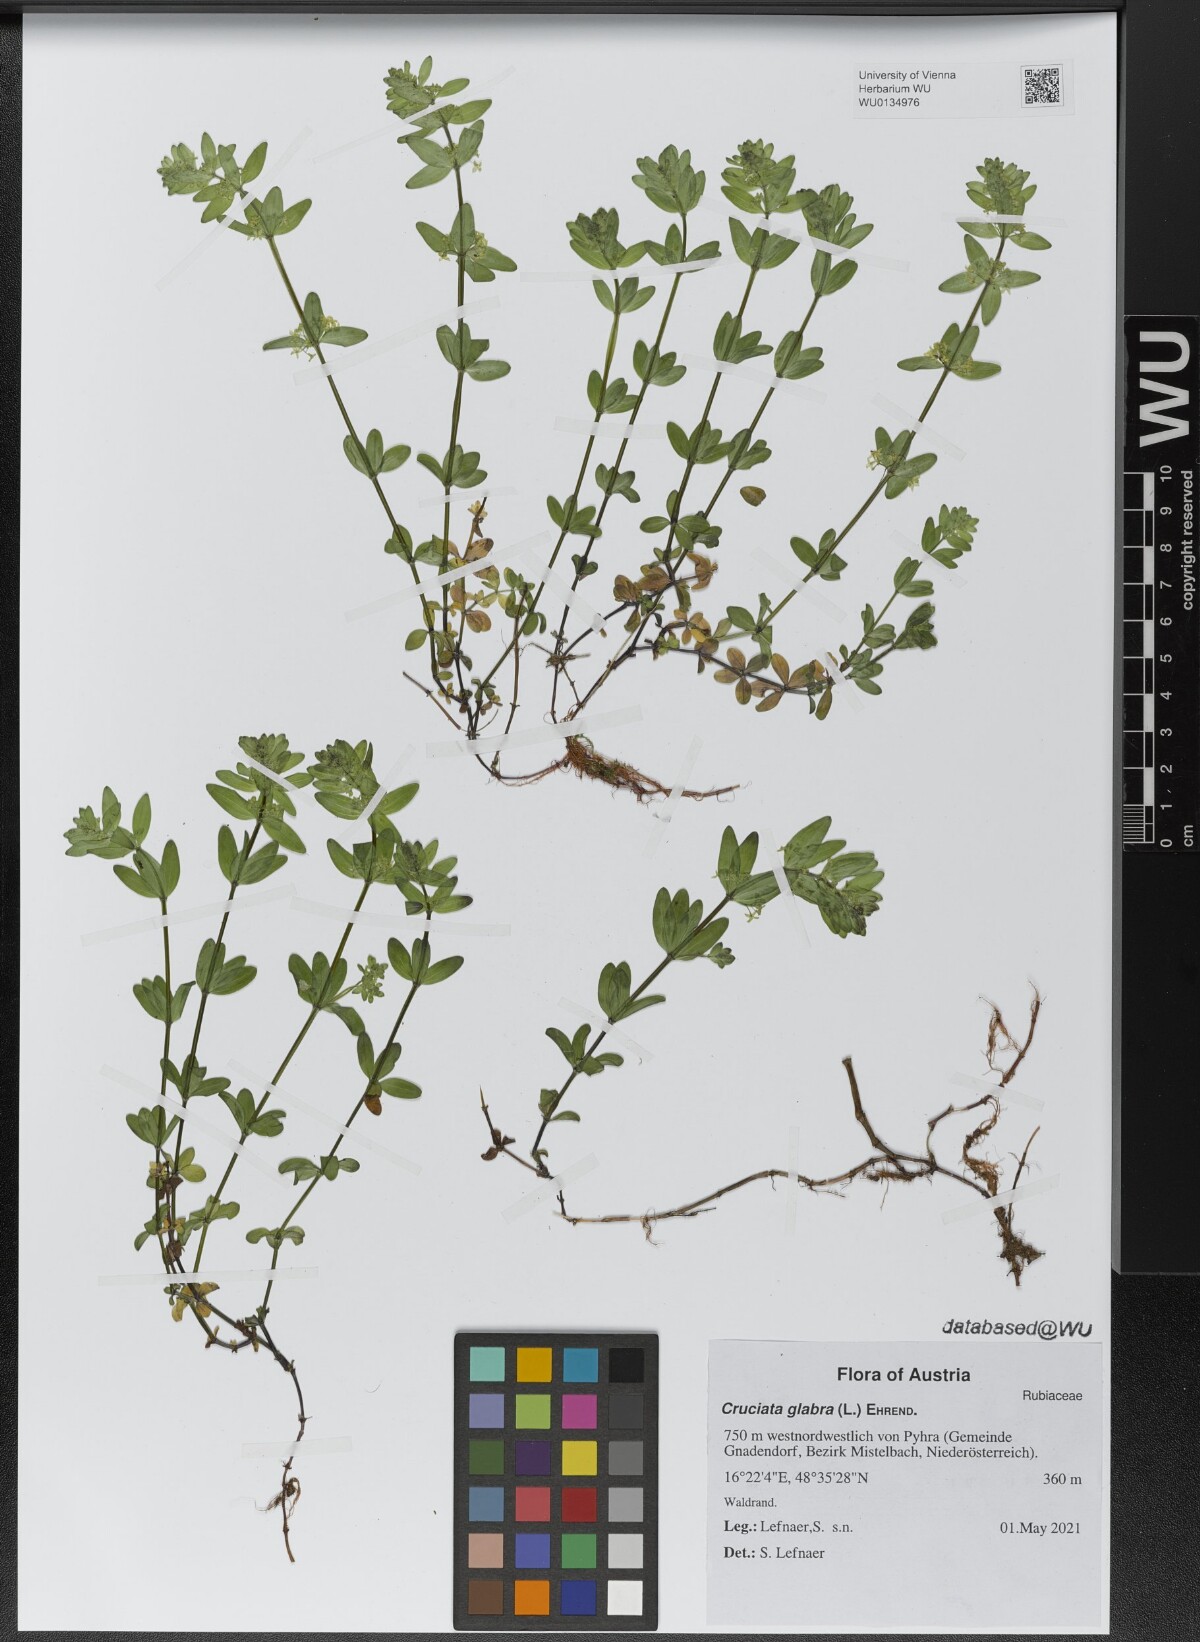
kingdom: Plantae
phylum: Tracheophyta
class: Magnoliopsida
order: Gentianales
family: Rubiaceae
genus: Cruciata
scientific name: Cruciata glabra
